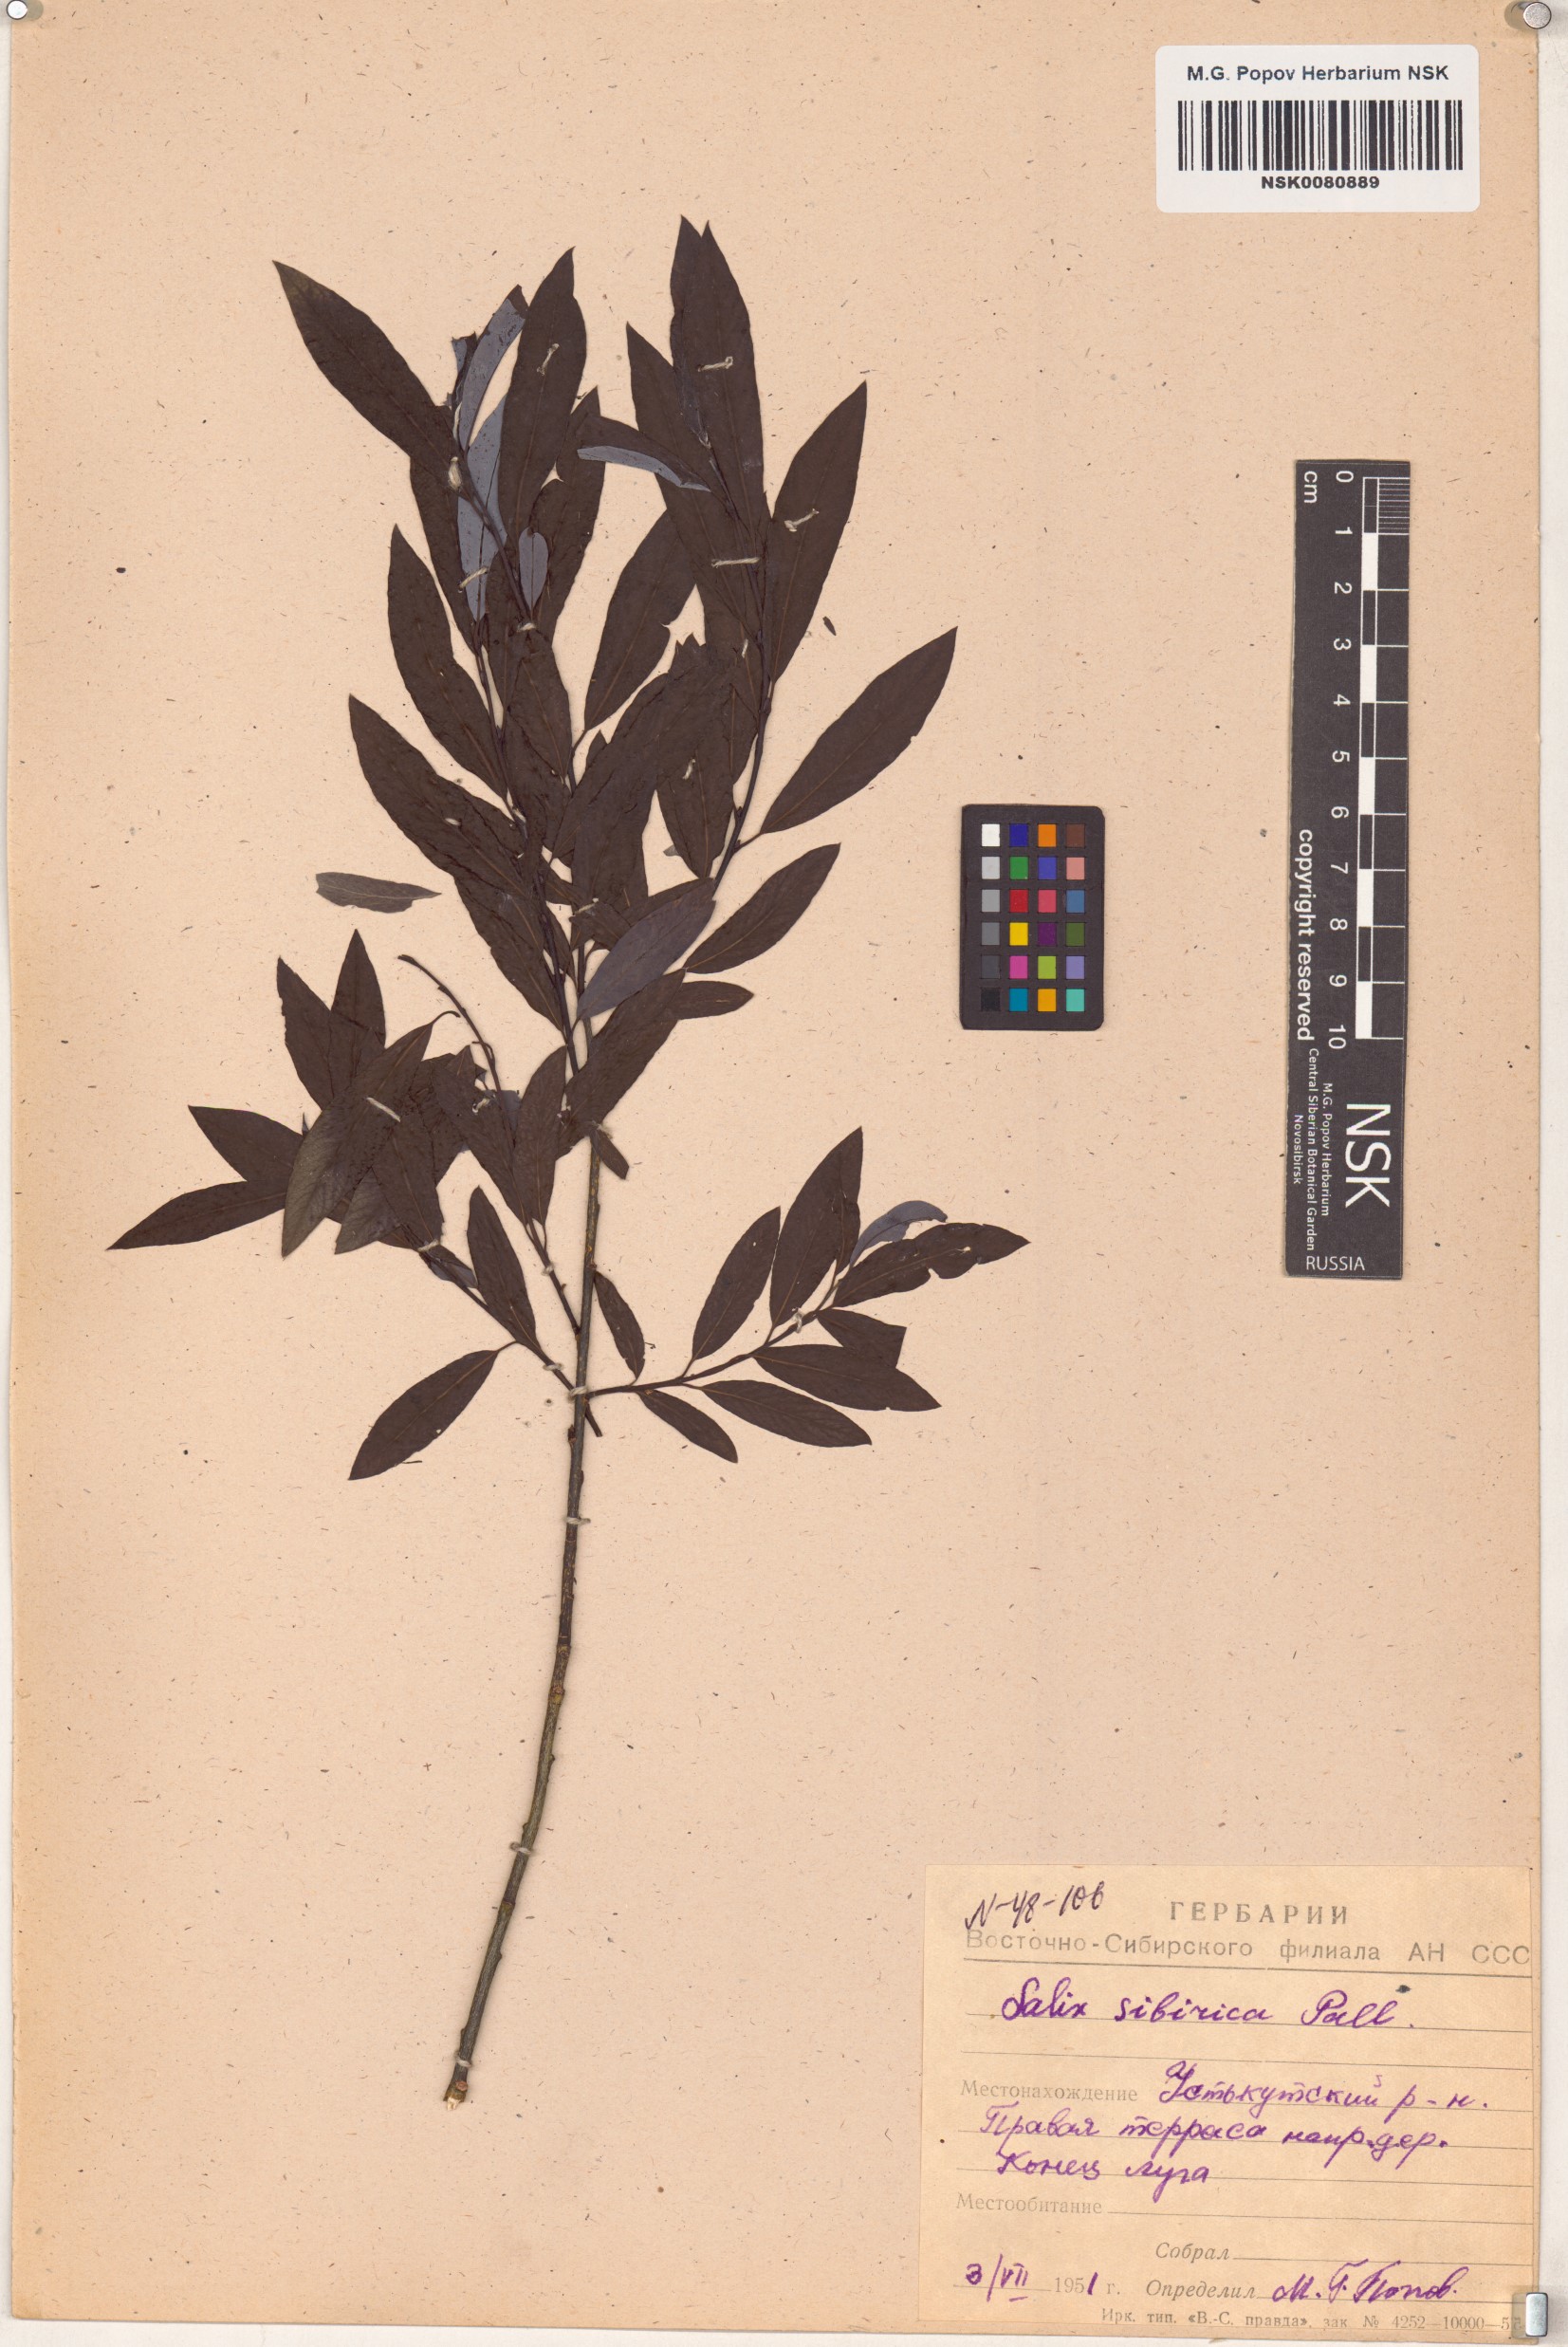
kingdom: Plantae
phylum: Tracheophyta
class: Magnoliopsida
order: Malpighiales
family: Salicaceae
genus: Salix
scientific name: Salix rosmarinifolia
